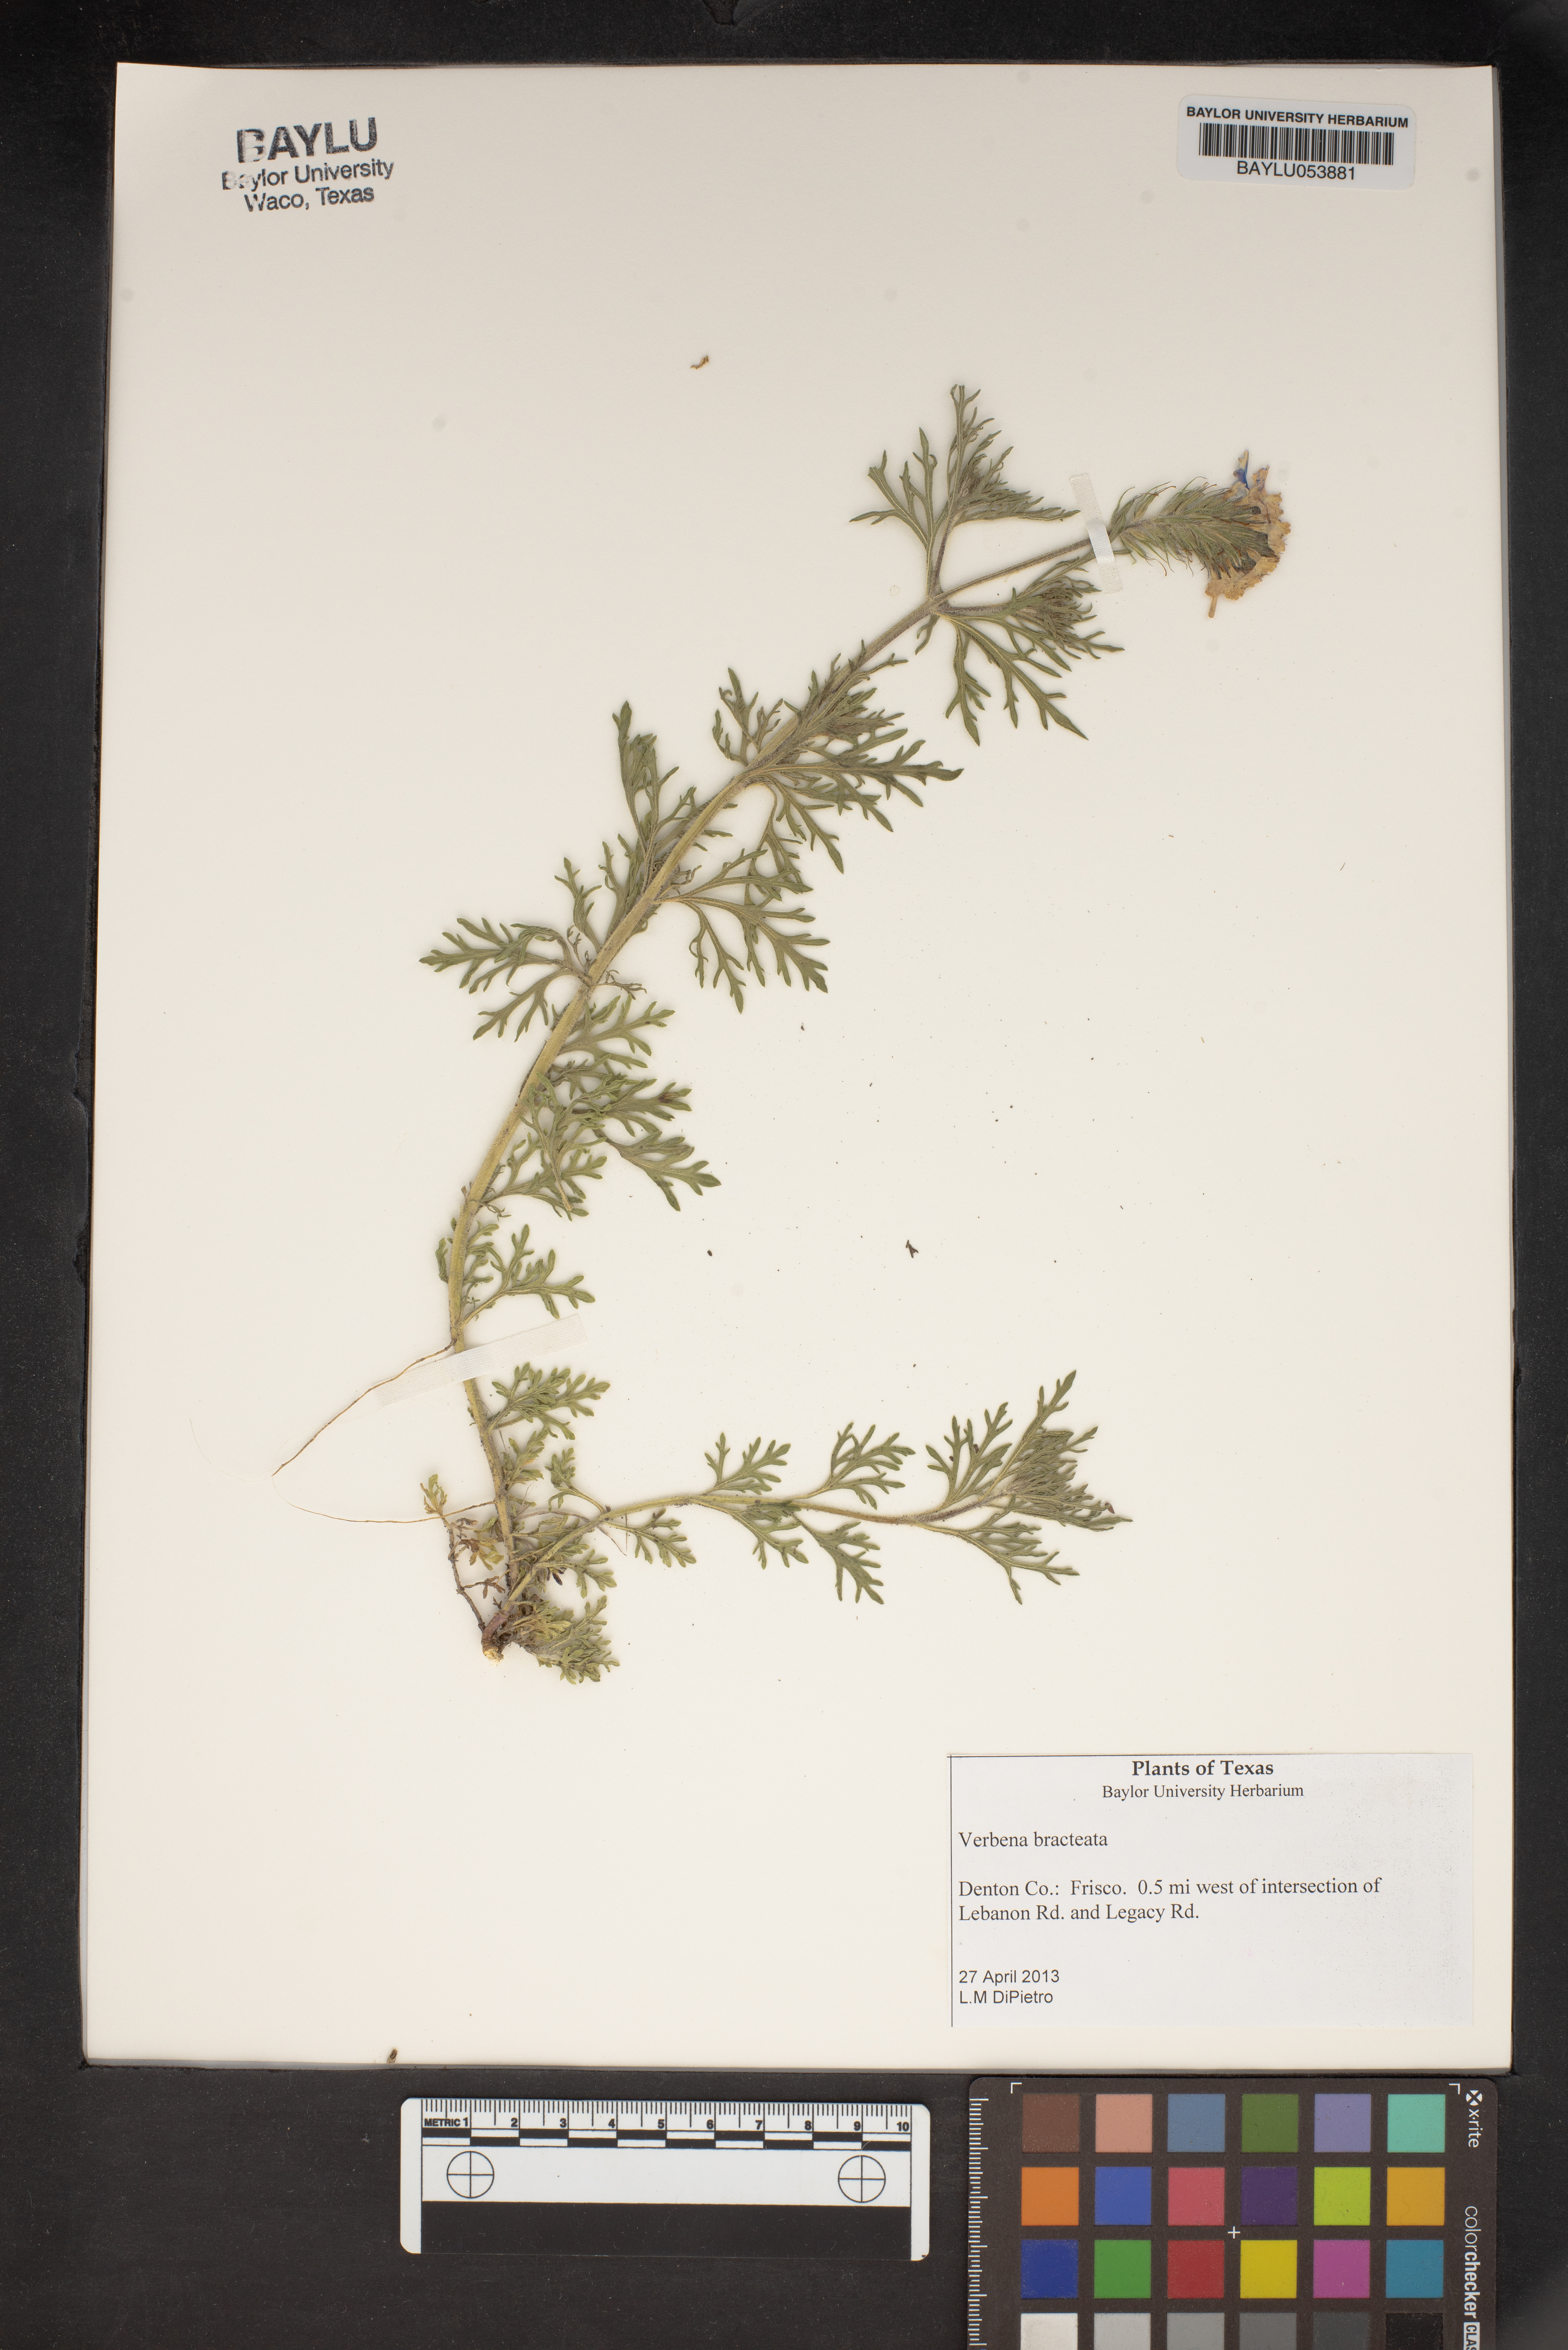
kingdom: Plantae
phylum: Tracheophyta
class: Magnoliopsida
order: Lamiales
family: Verbenaceae
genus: Verbena
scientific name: Verbena bracteata
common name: Bracted vervain
